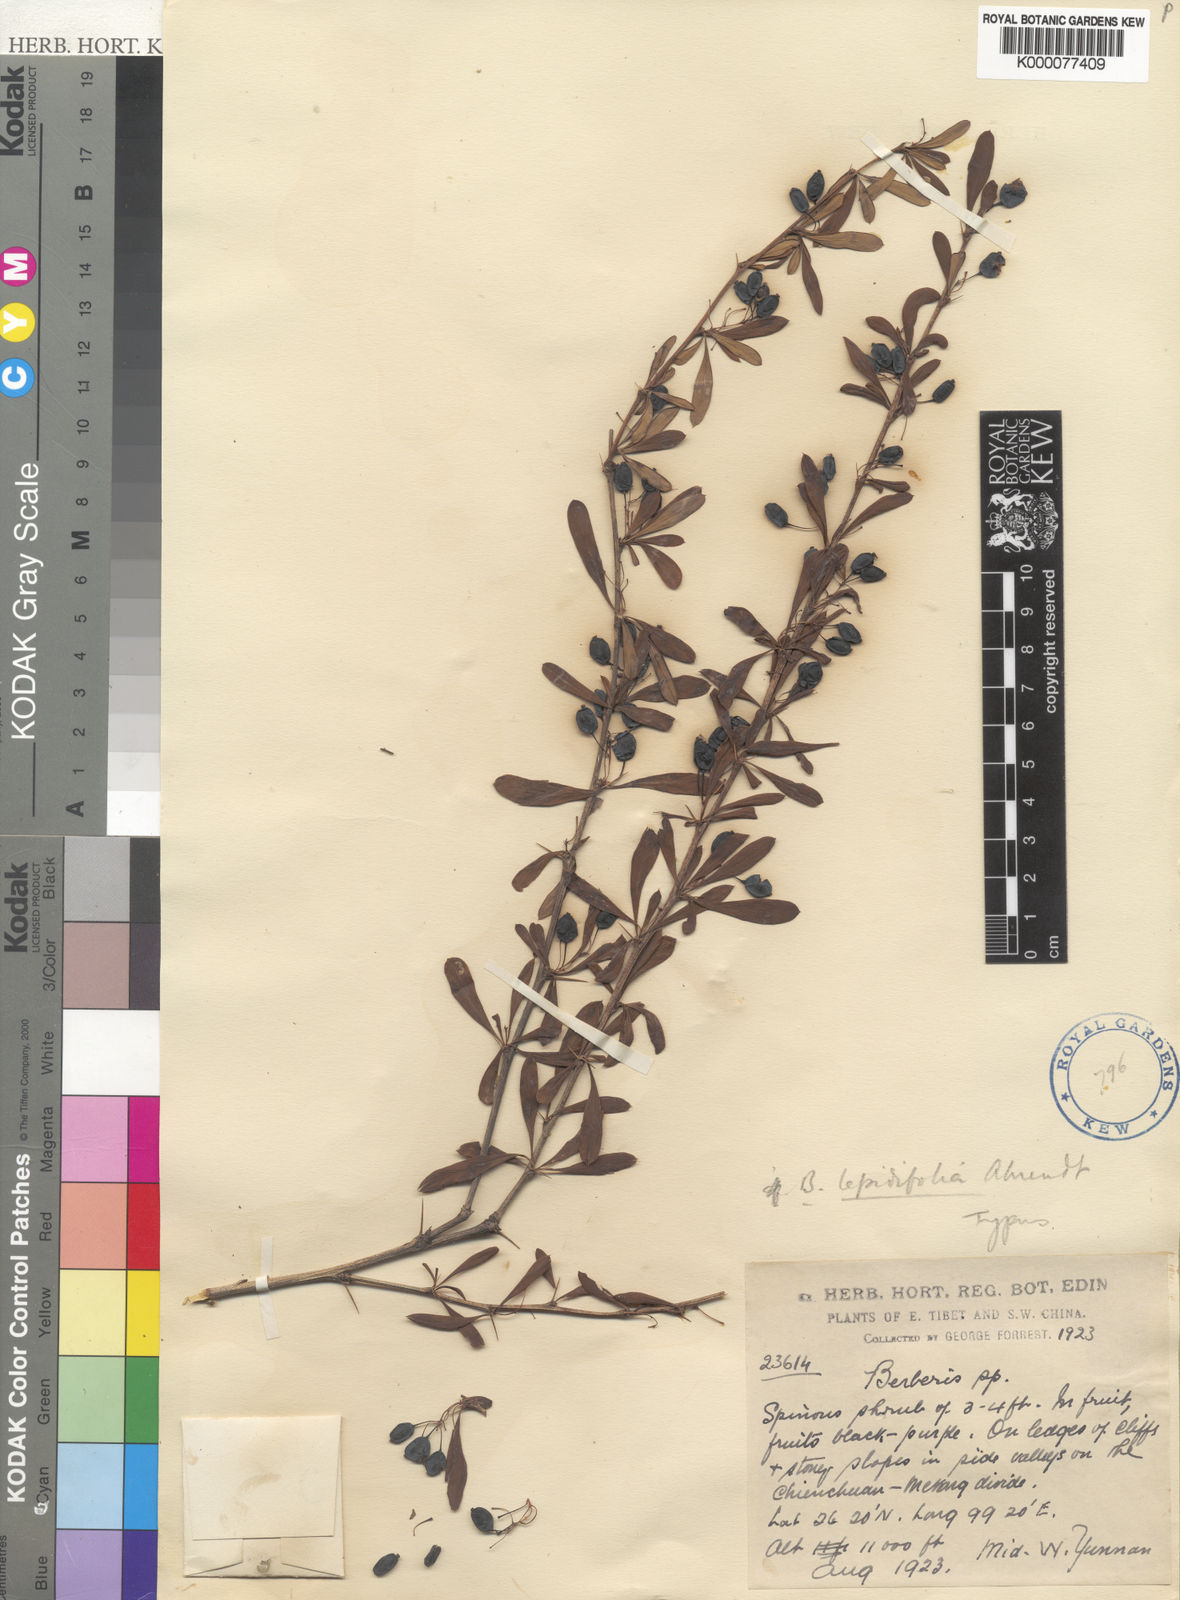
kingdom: Plantae
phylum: Tracheophyta
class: Magnoliopsida
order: Ranunculales
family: Berberidaceae
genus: Berberis
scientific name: Berberis lepidifolia
